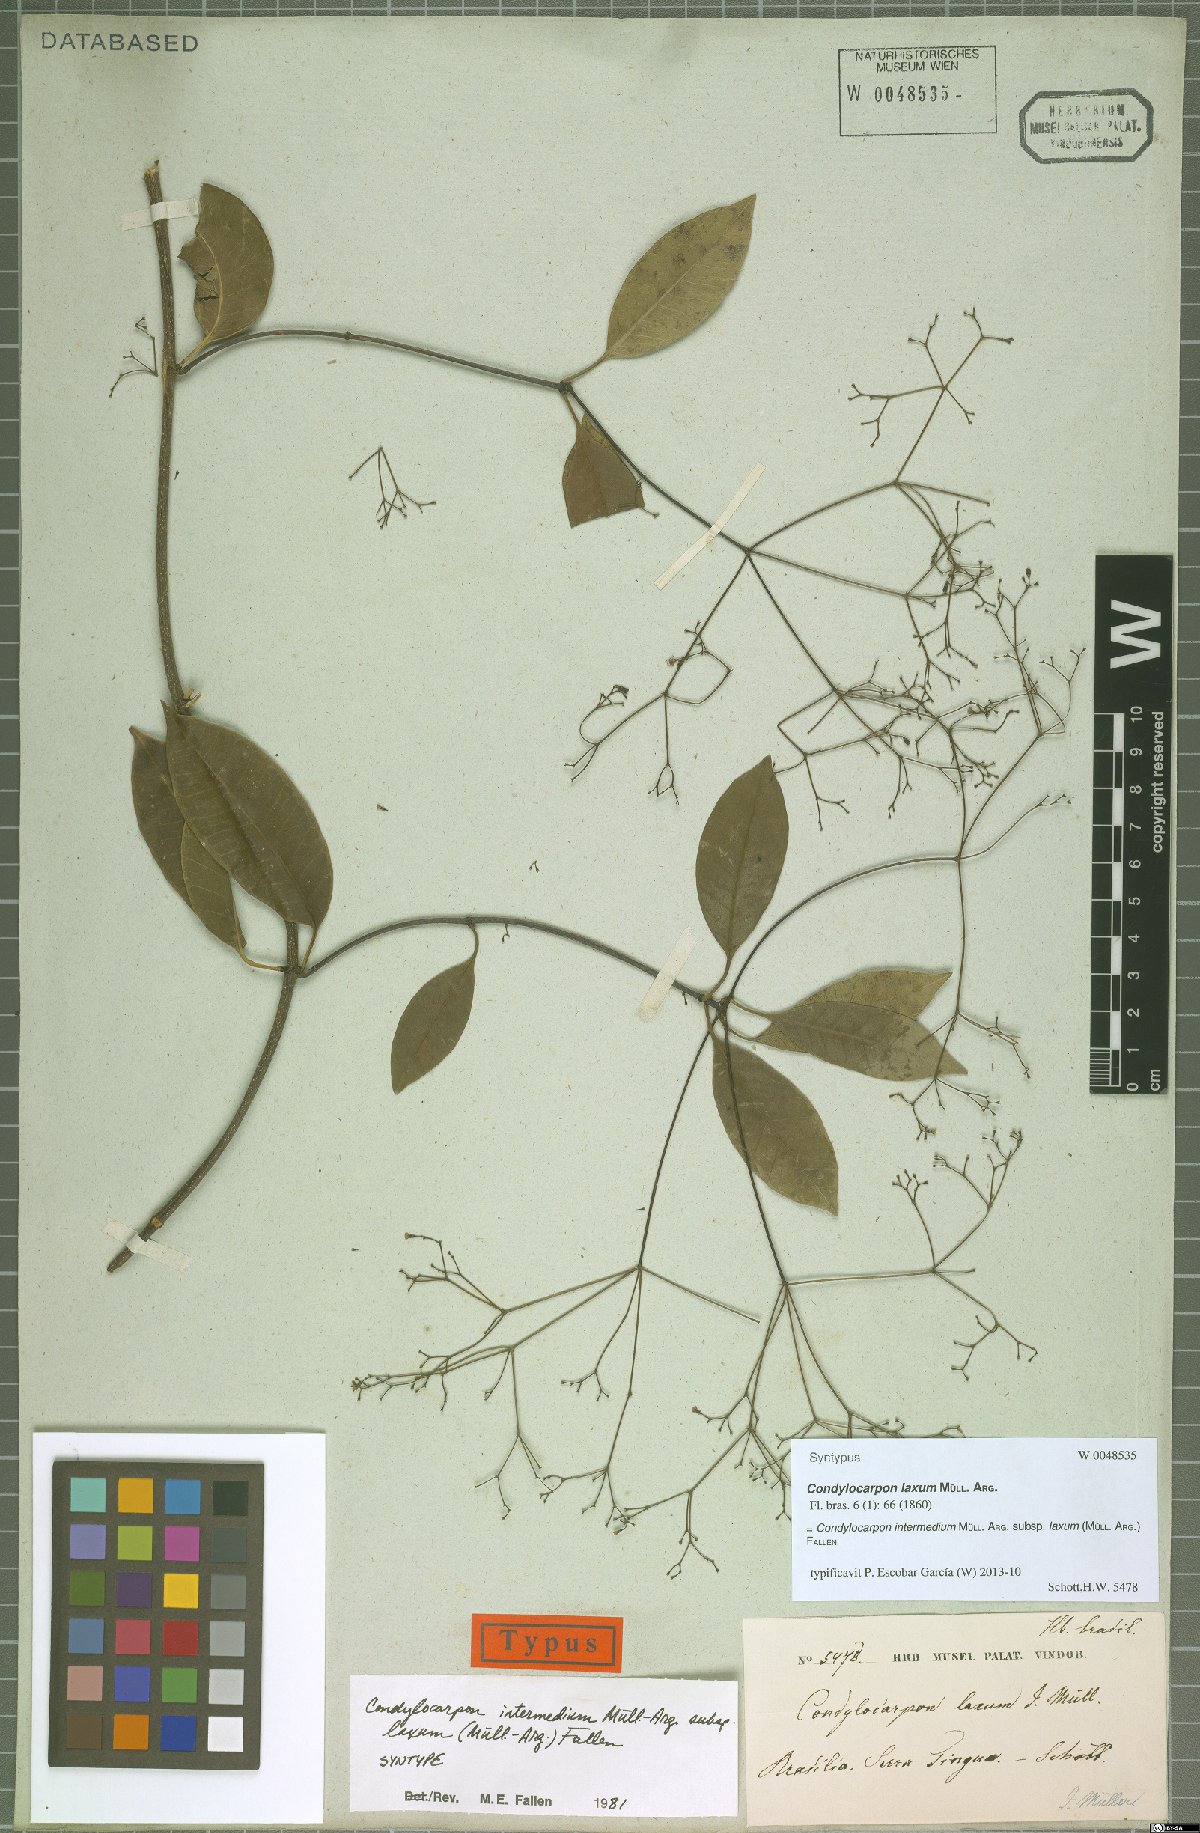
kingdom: Plantae
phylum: Tracheophyta
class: Magnoliopsida
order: Gentianales
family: Apocynaceae
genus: Condylocarpon
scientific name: Condylocarpon intermedium
